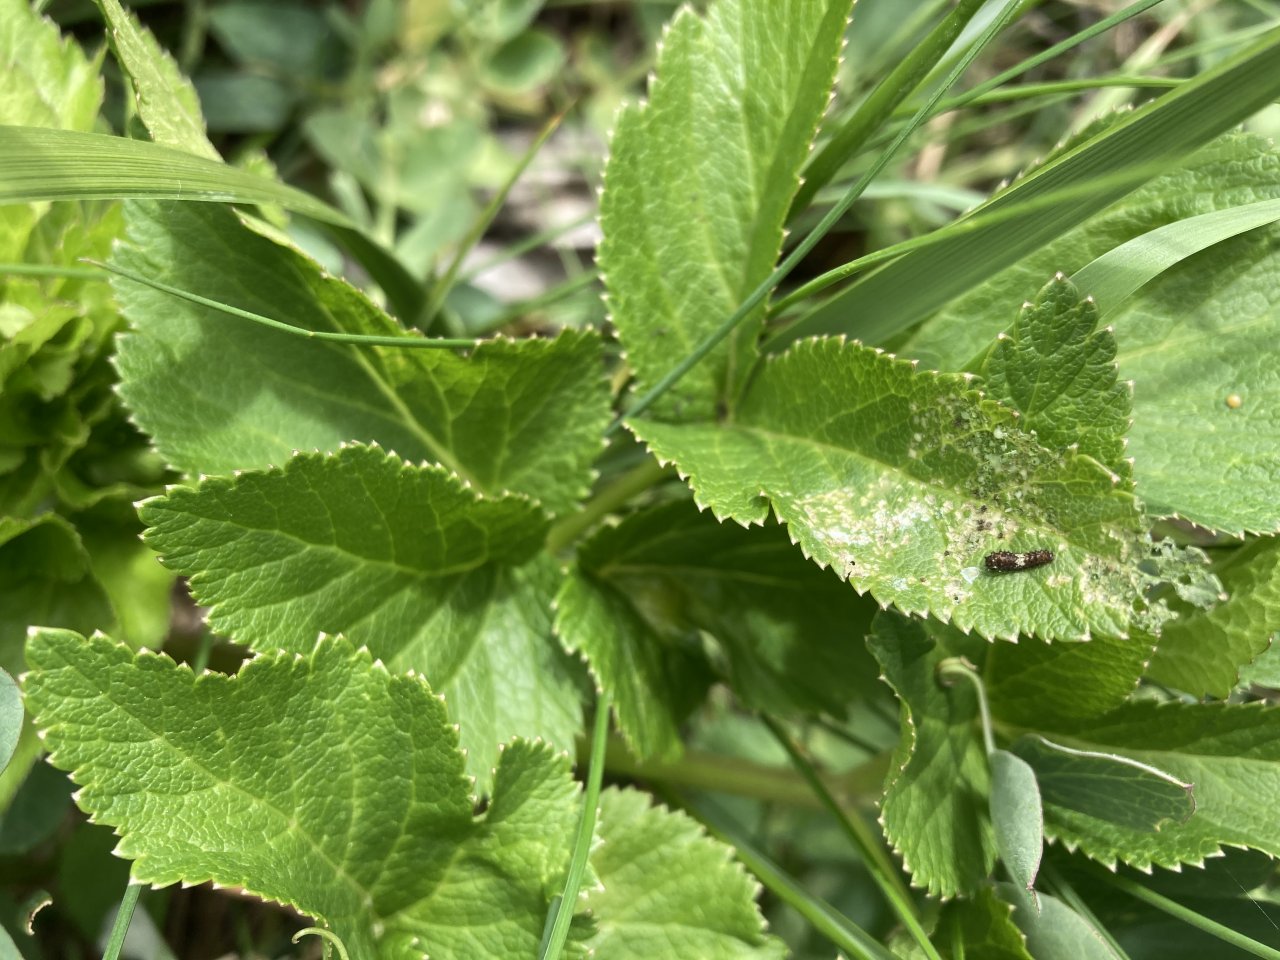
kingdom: Animalia
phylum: Arthropoda
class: Insecta
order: Lepidoptera
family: Papilionidae
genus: Papilio
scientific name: Papilio brevicauda
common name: Short-tailed Swallowtail
